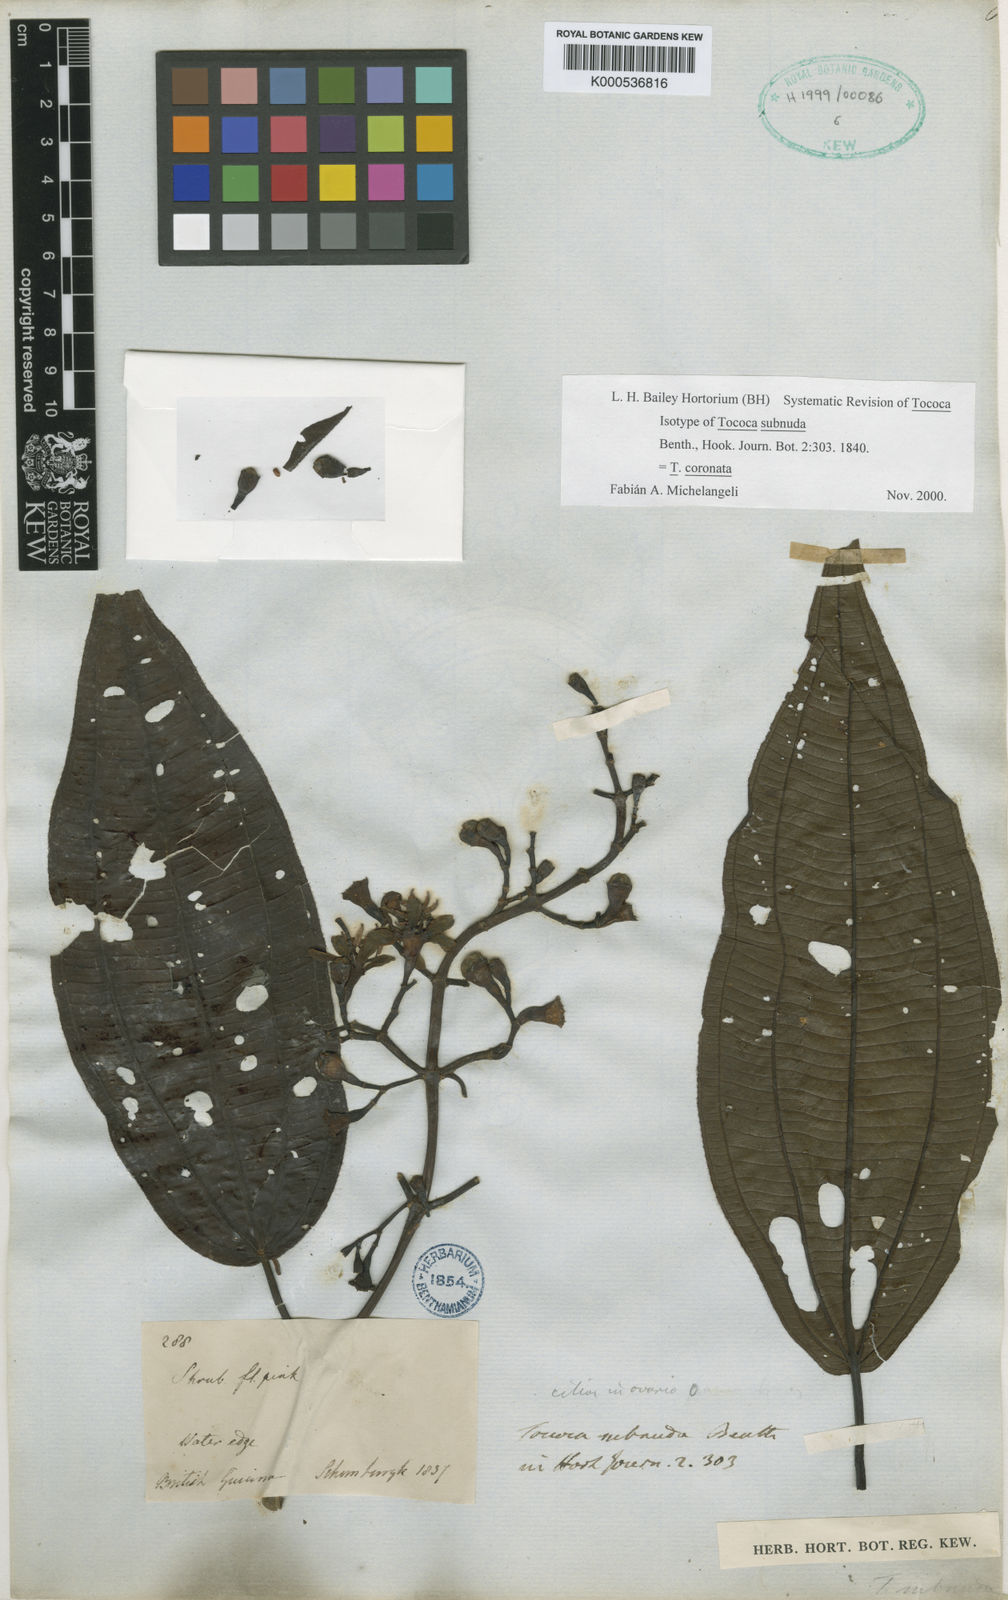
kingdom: Plantae
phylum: Tracheophyta
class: Magnoliopsida
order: Myrtales
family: Melastomataceae
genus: Miconia
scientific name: Miconia subciliata
